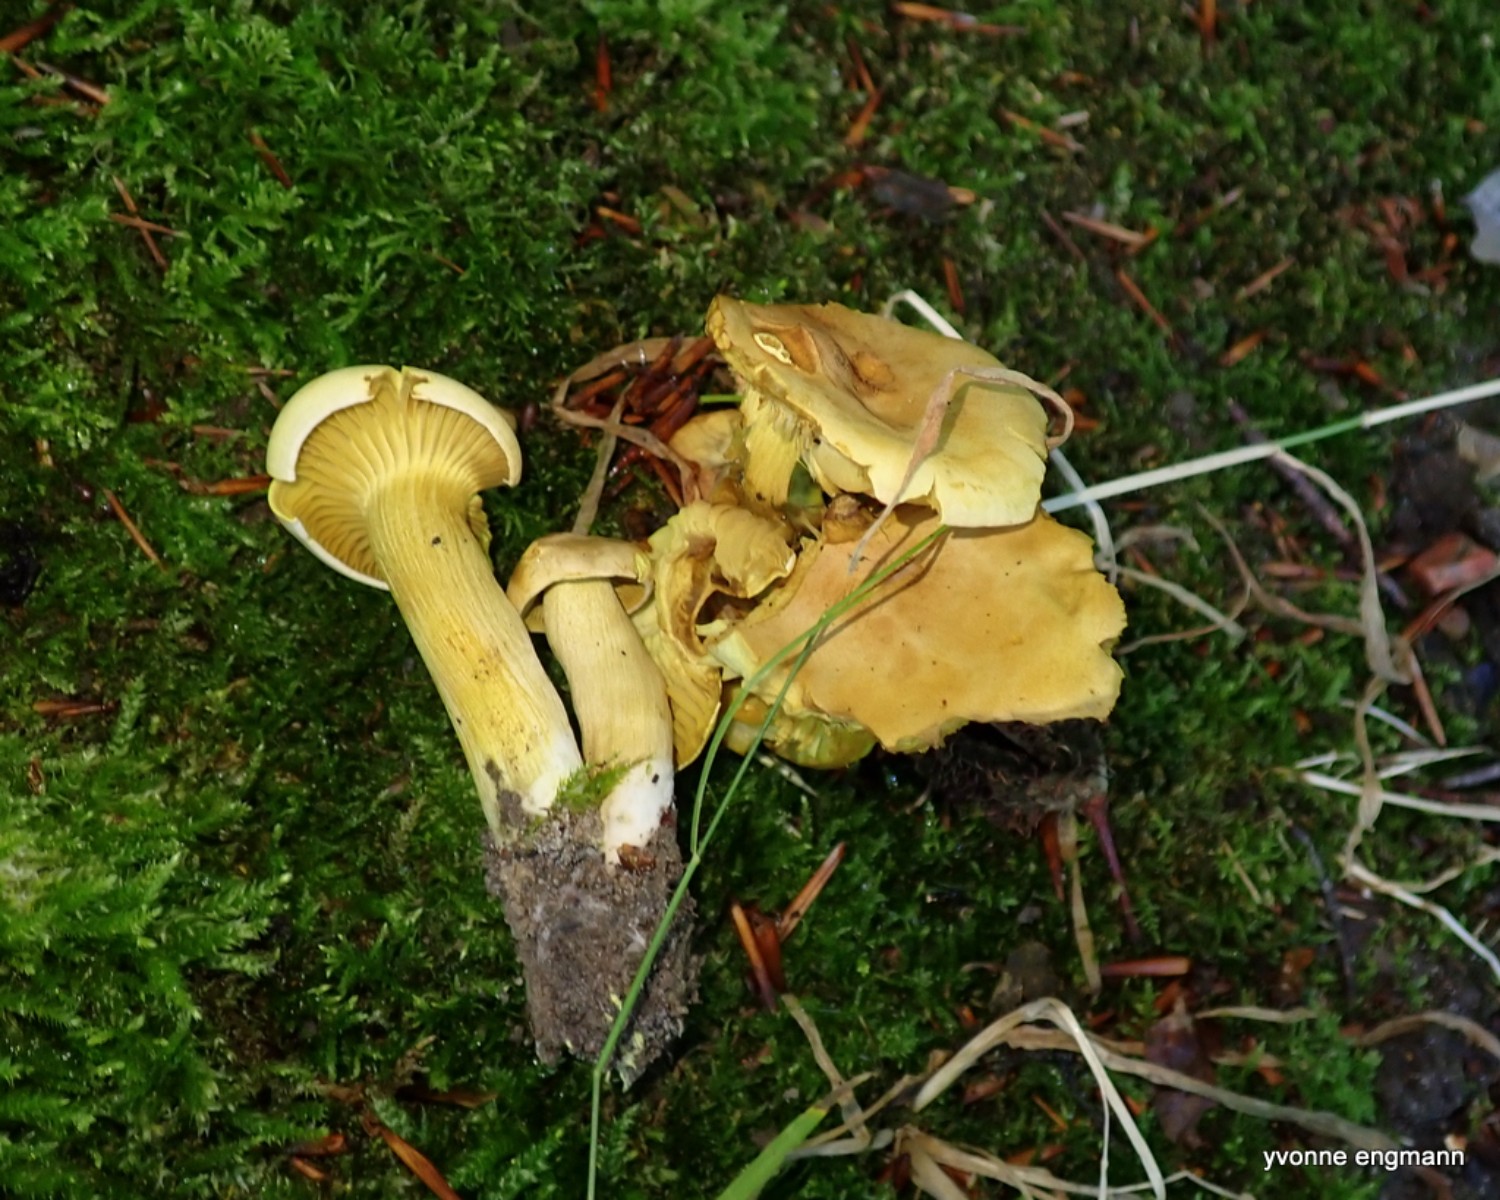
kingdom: Fungi
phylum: Basidiomycota
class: Agaricomycetes
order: Agaricales
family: Tricholomataceae
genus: Tricholoma
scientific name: Tricholoma sulphureum
